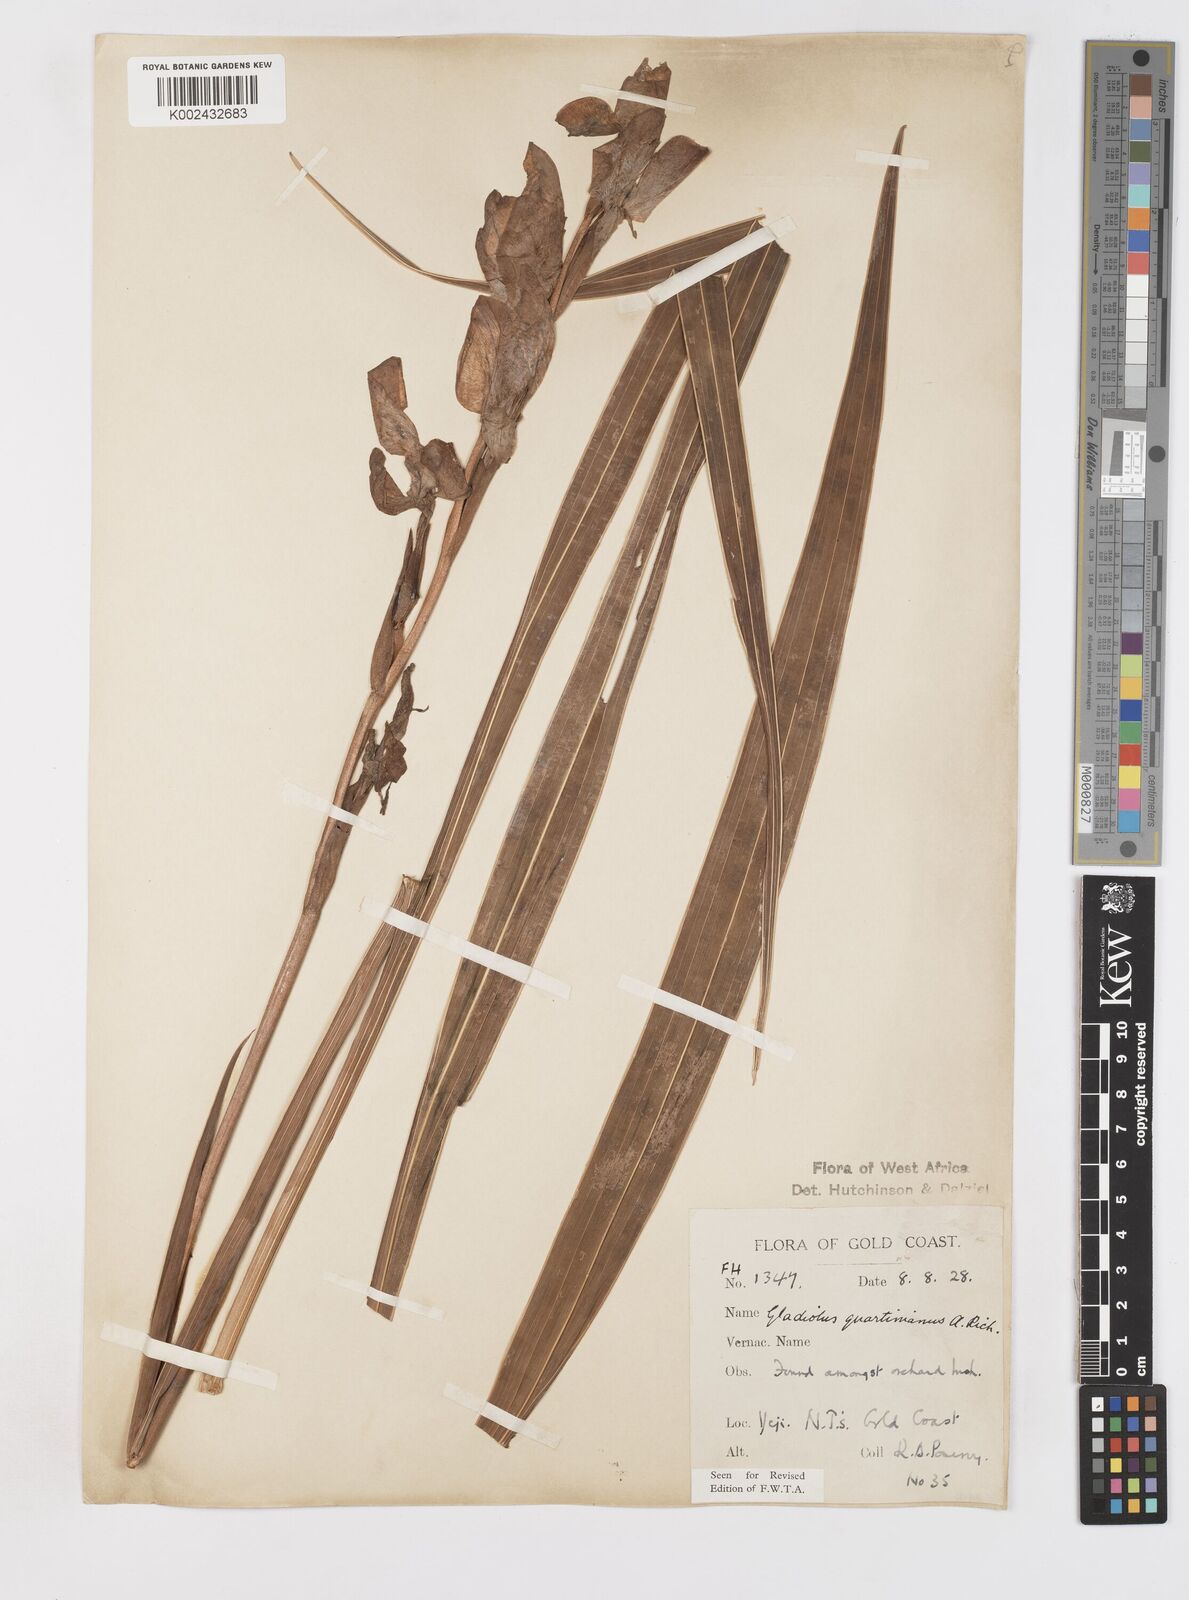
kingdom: Plantae
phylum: Tracheophyta
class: Liliopsida
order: Asparagales
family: Iridaceae
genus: Gladiolus
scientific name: Gladiolus dalenii
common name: Cornflag
